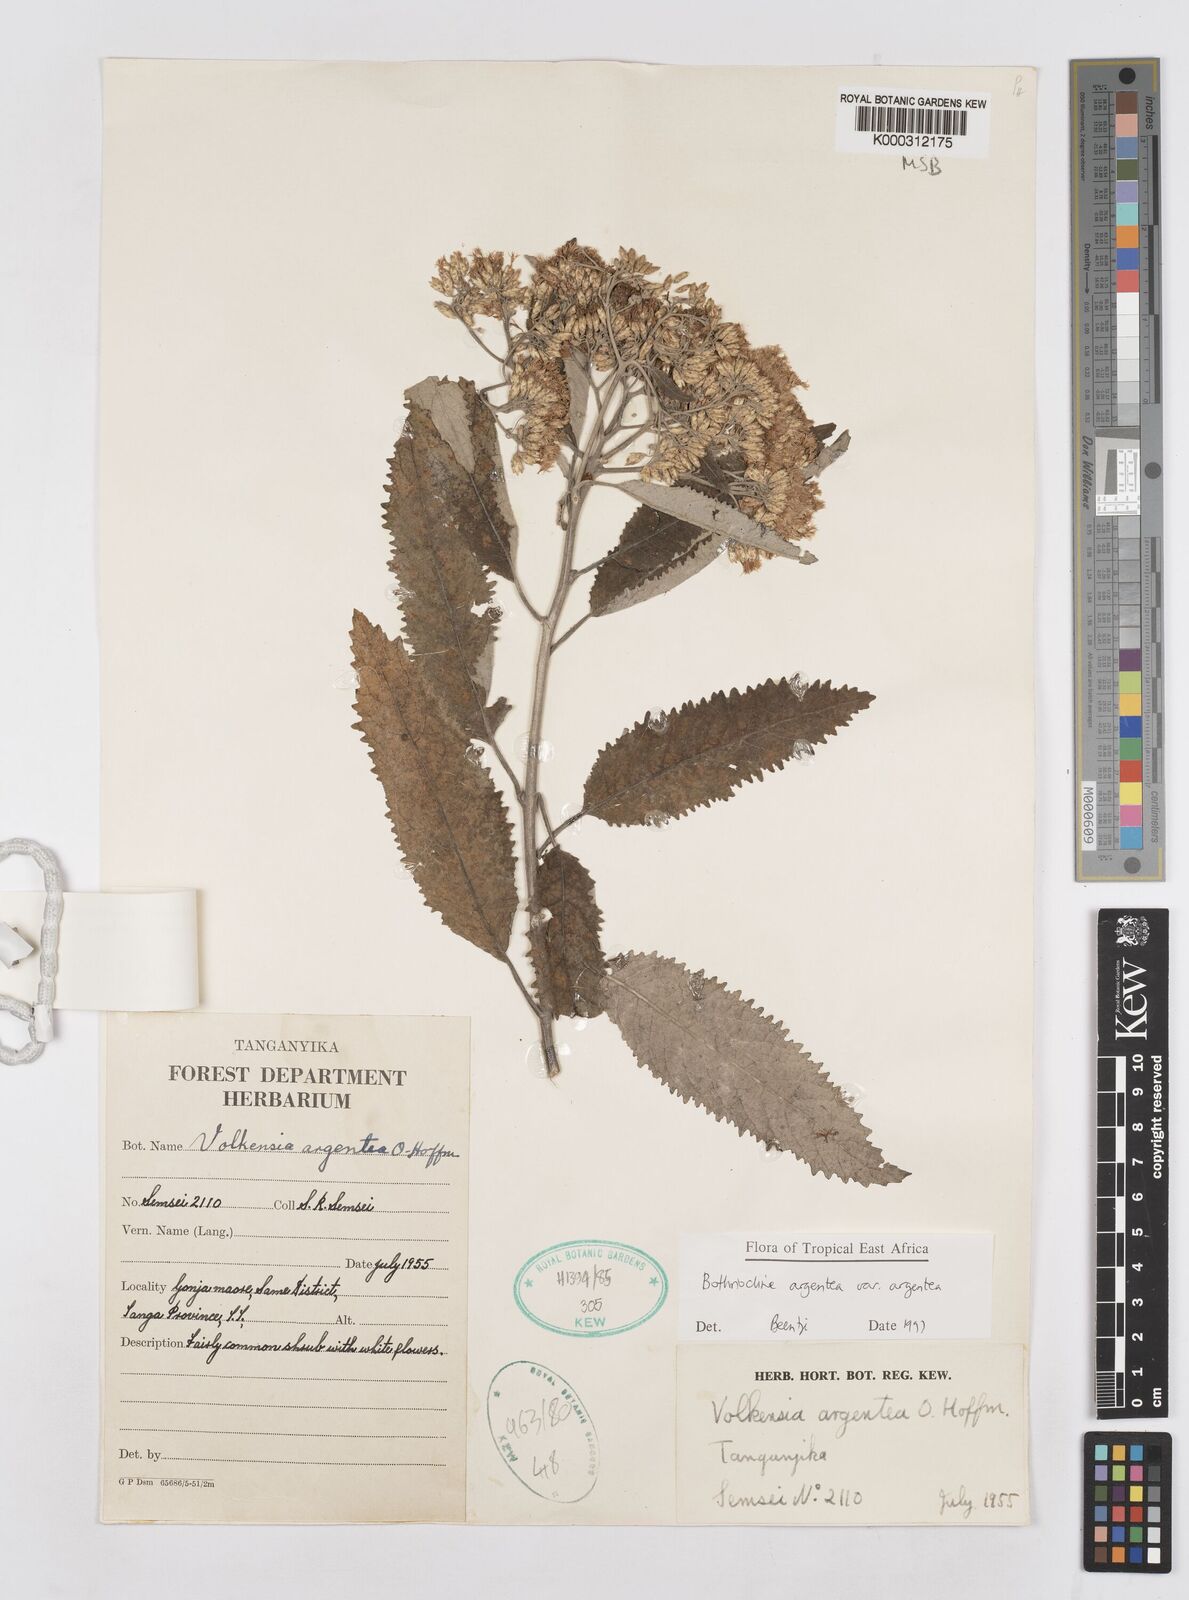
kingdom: Plantae
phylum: Tracheophyta
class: Magnoliopsida
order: Asterales
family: Asteraceae
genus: Bothriocline
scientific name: Bothriocline argentea
